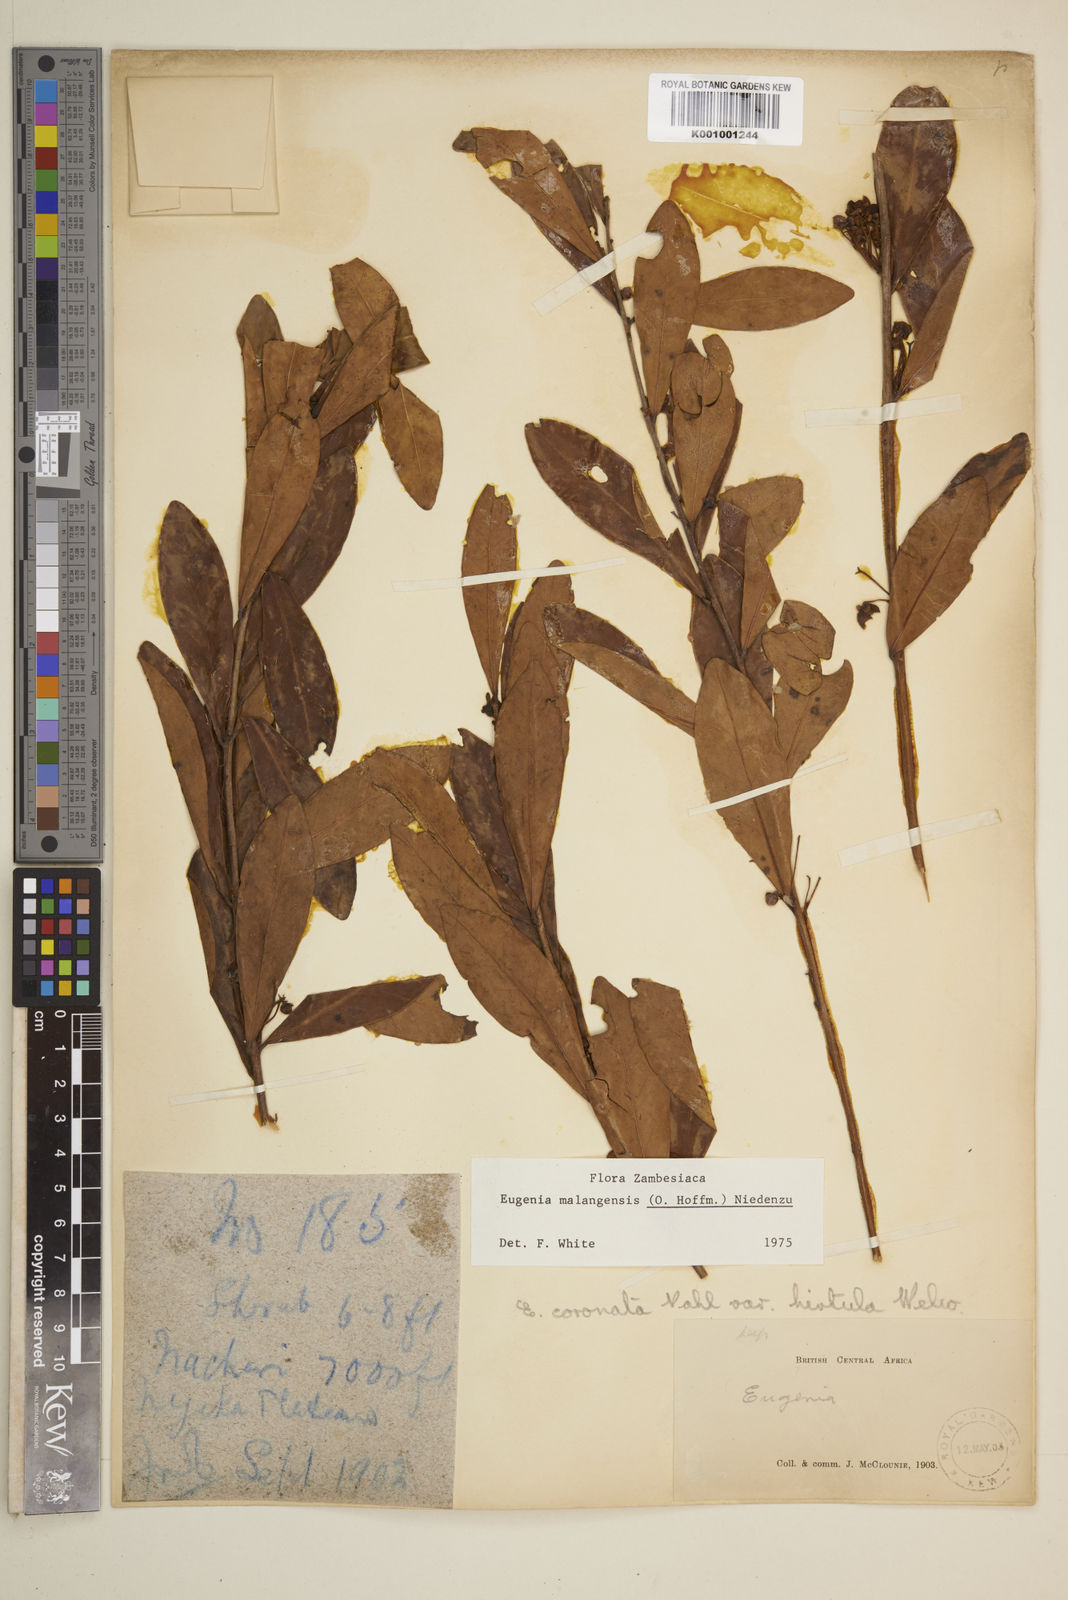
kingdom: Plantae
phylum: Tracheophyta
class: Magnoliopsida
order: Myrtales
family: Myrtaceae
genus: Eugenia
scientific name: Eugenia malangensis
